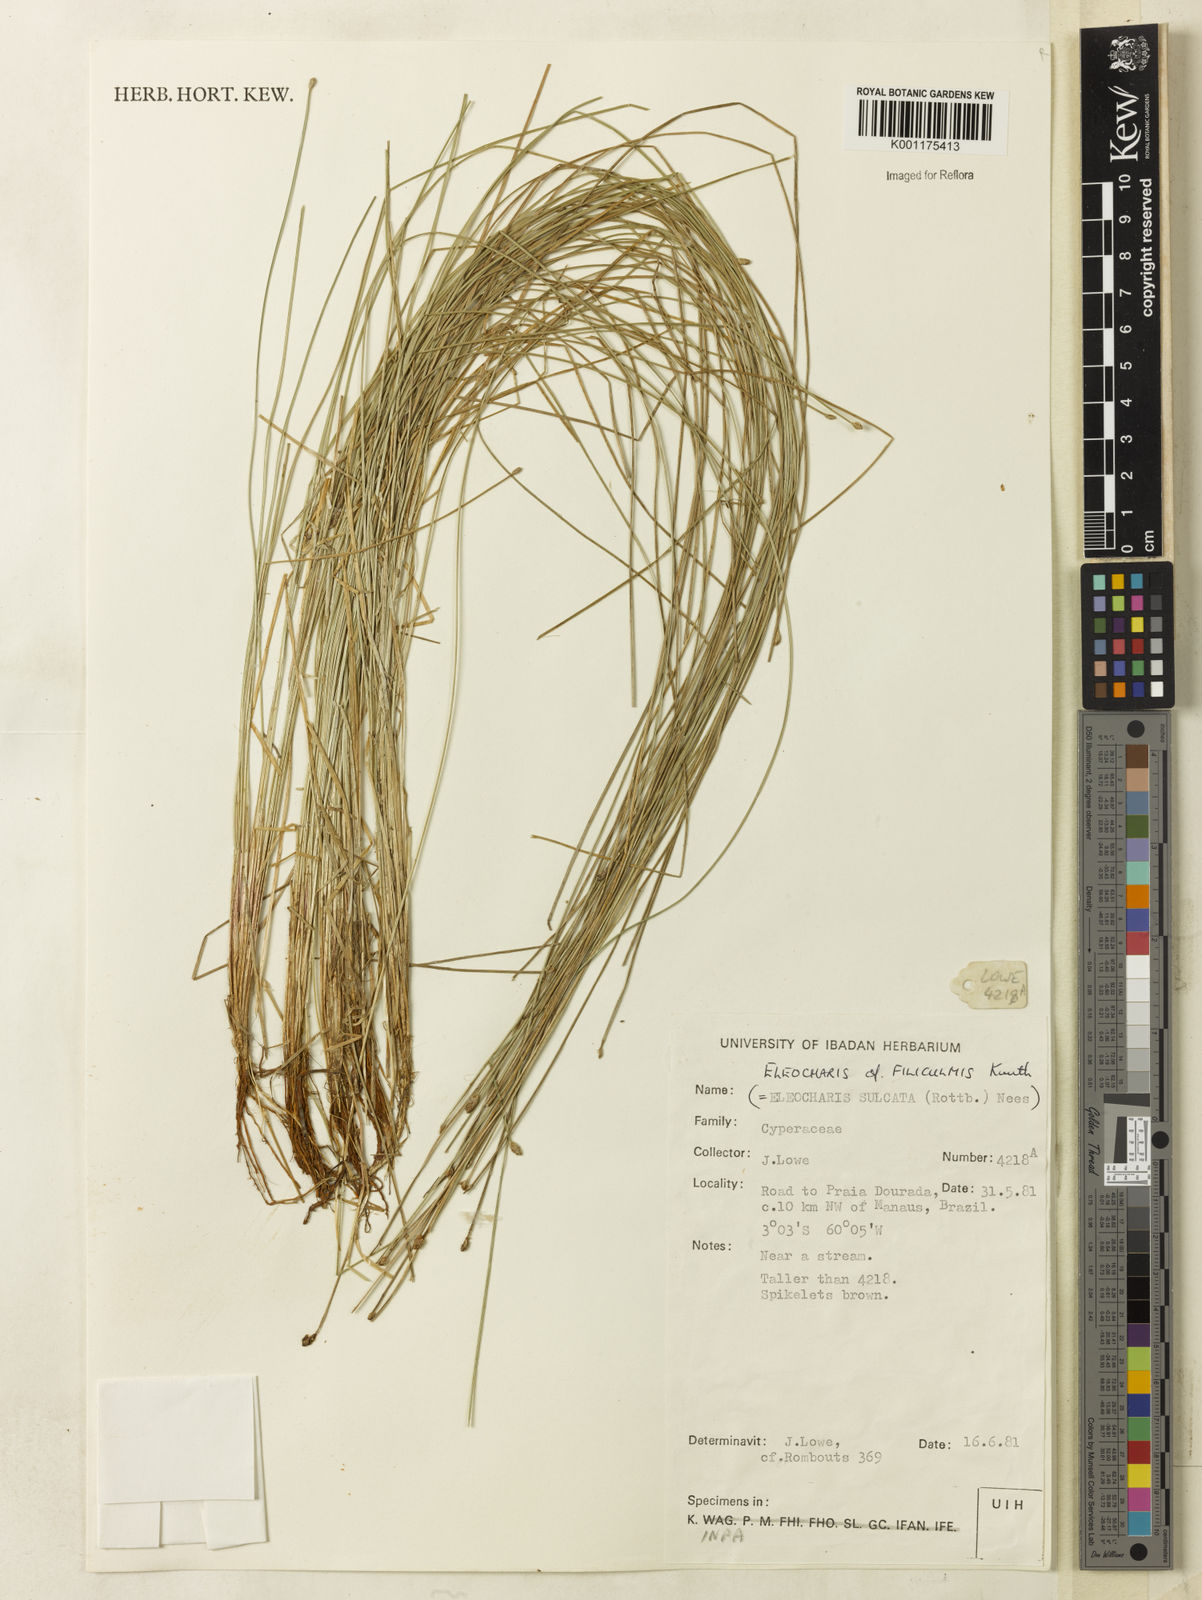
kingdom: Plantae
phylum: Tracheophyta
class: Liliopsida
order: Poales
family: Cyperaceae
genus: Eleocharis
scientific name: Eleocharis filiculmis
